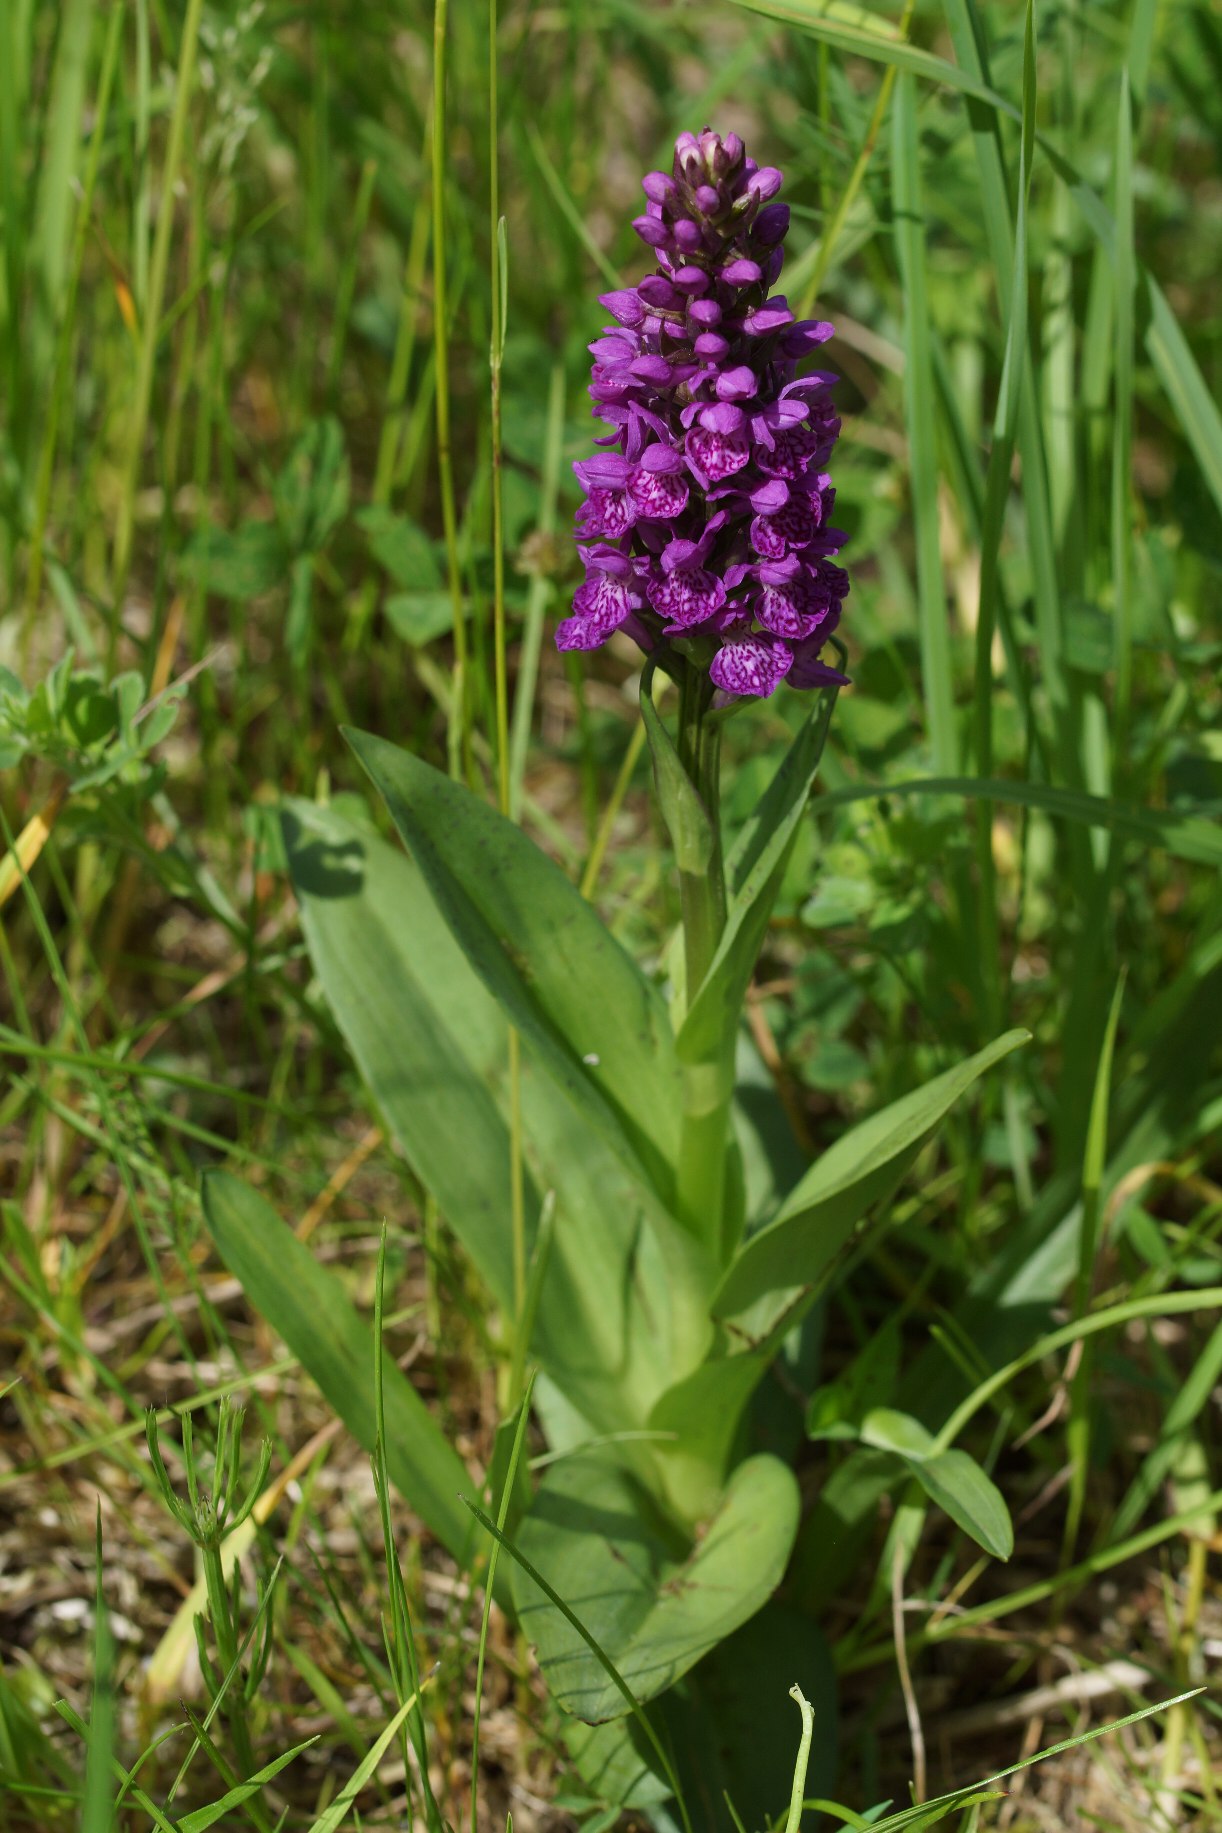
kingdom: Plantae
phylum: Tracheophyta
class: Liliopsida
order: Asparagales
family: Orchidaceae
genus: Dactylorhiza
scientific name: Dactylorhiza majalis
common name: Purpur-gøgeurt
